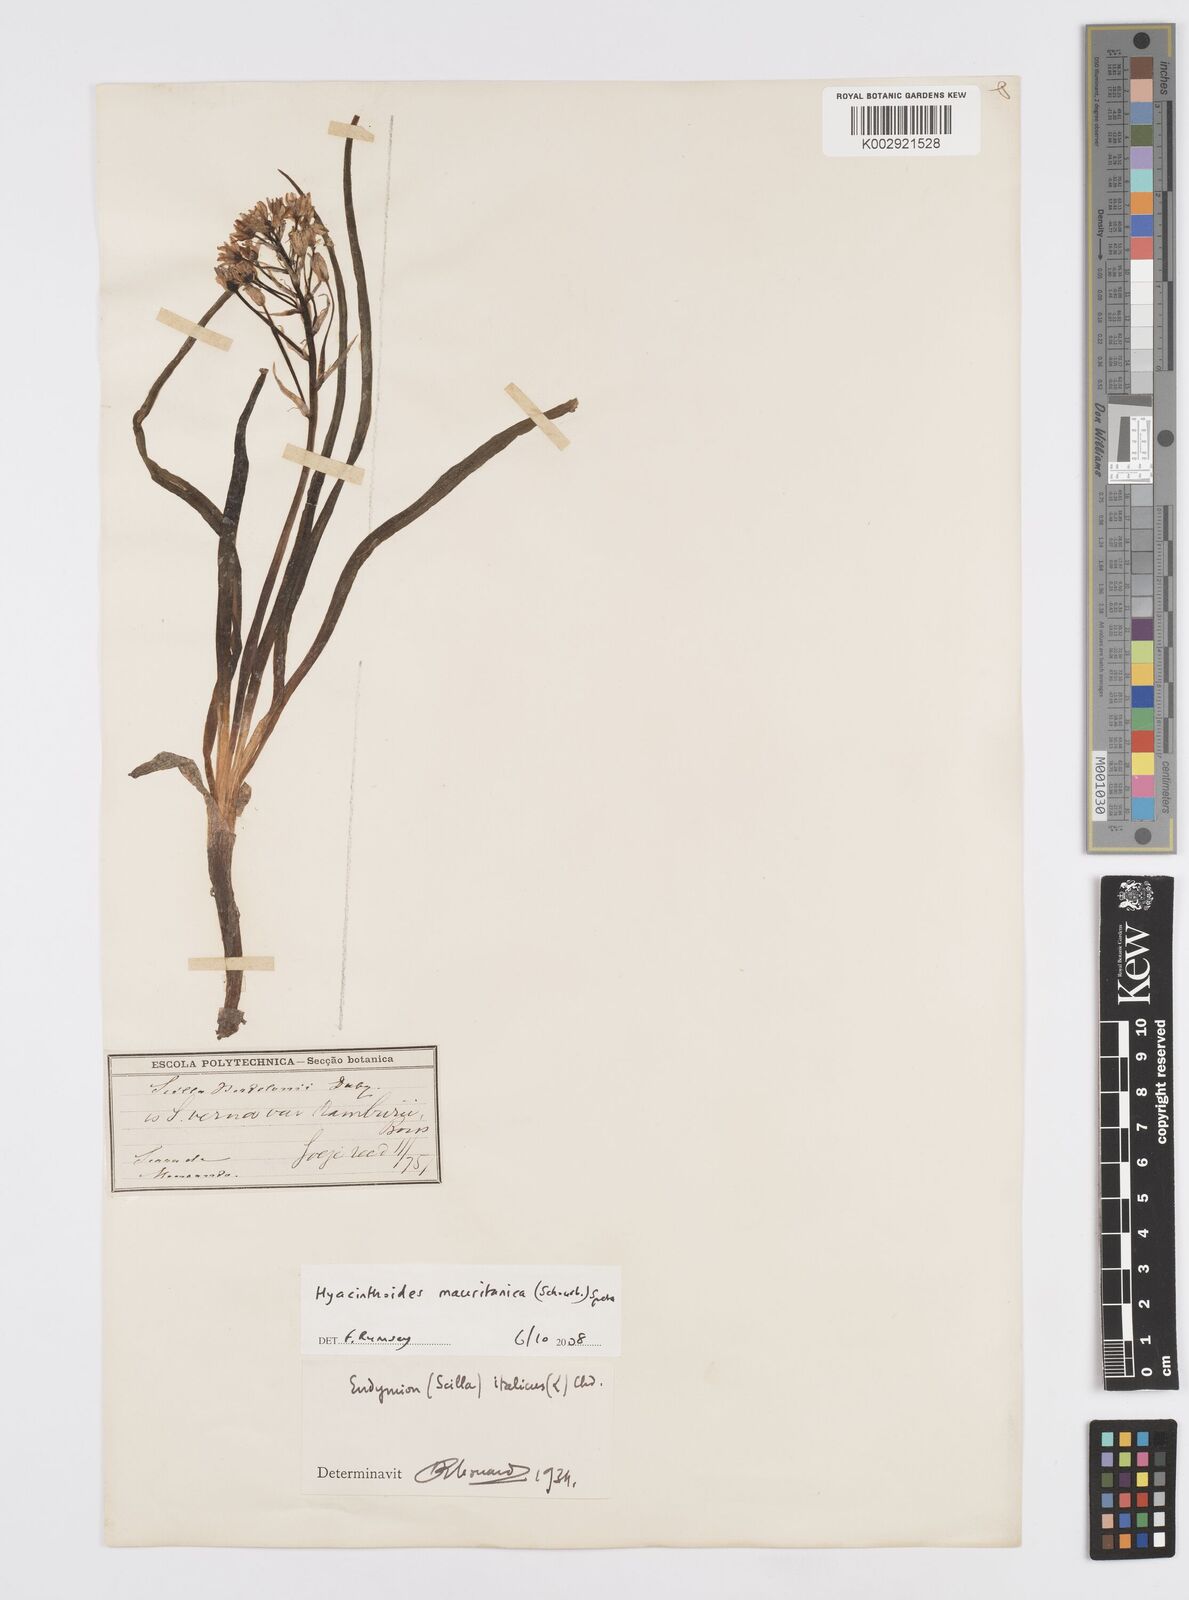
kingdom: Plantae
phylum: Tracheophyta
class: Liliopsida
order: Asparagales
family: Asparagaceae
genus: Hyacinthoides
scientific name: Hyacinthoides mauritanica
